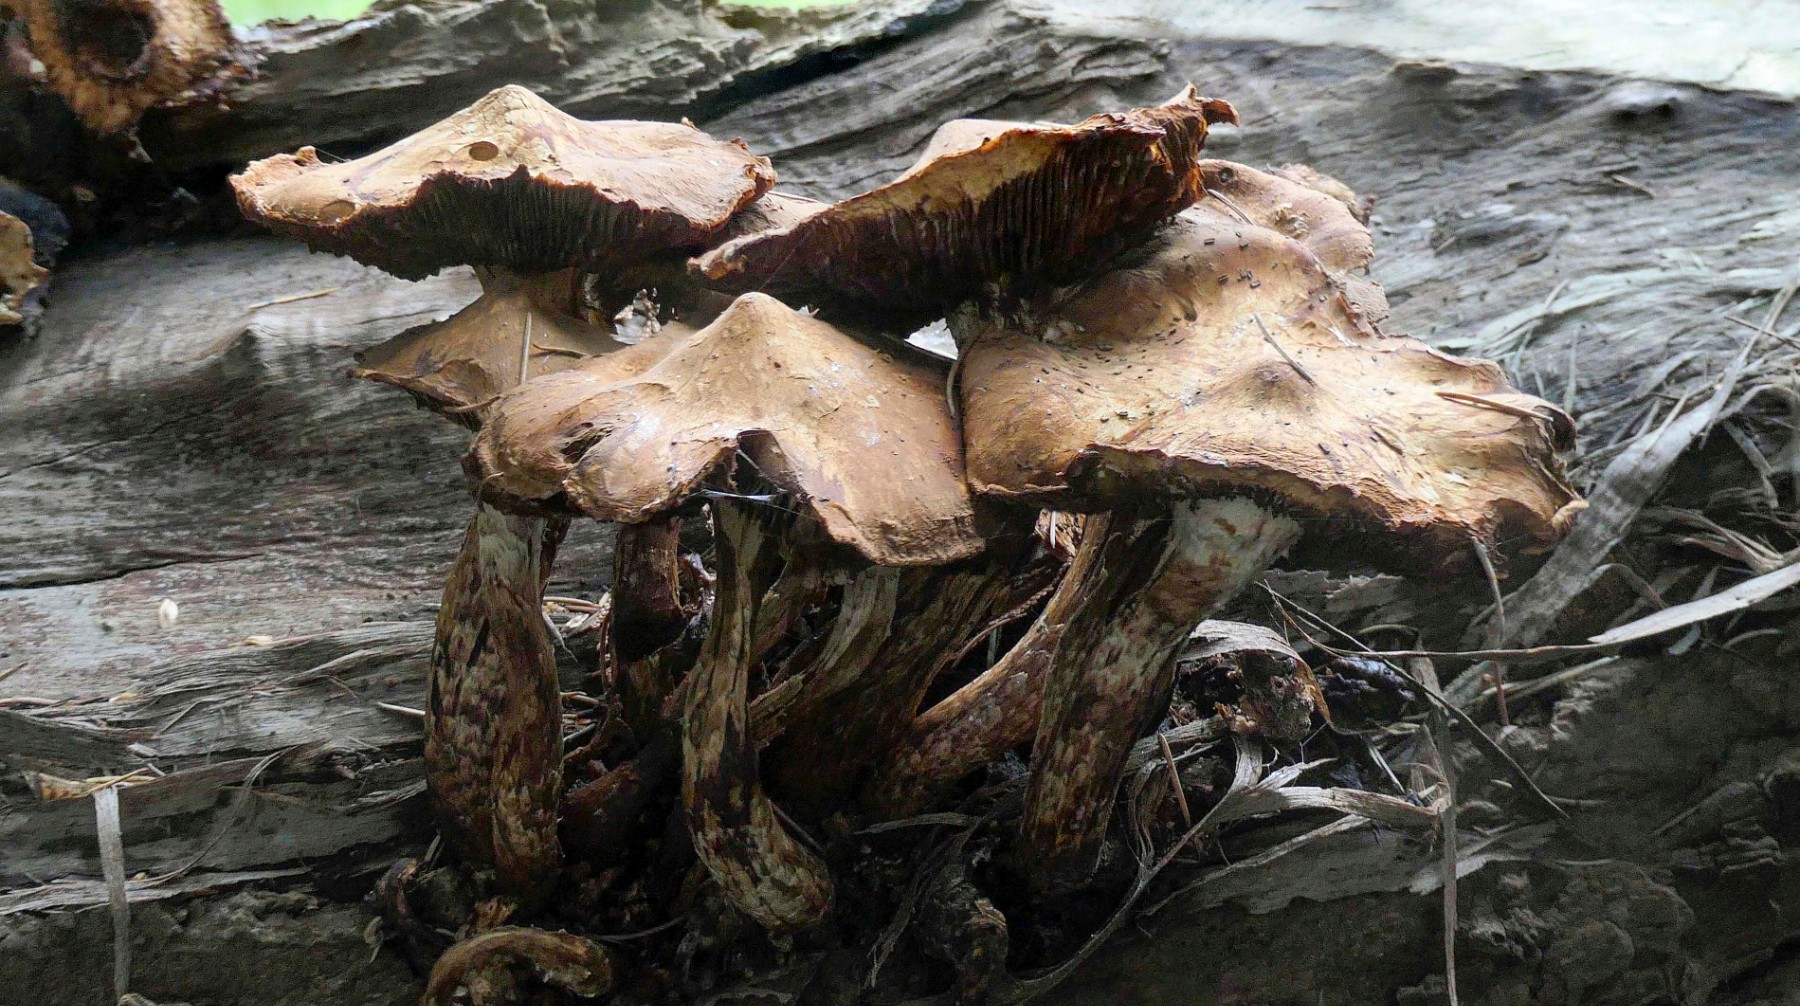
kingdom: Fungi
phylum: Basidiomycota
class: Agaricomycetes
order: Agaricales
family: Strophariaceae
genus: Pholiota
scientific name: Pholiota populnea
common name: poppel-kæmpeskælhat
